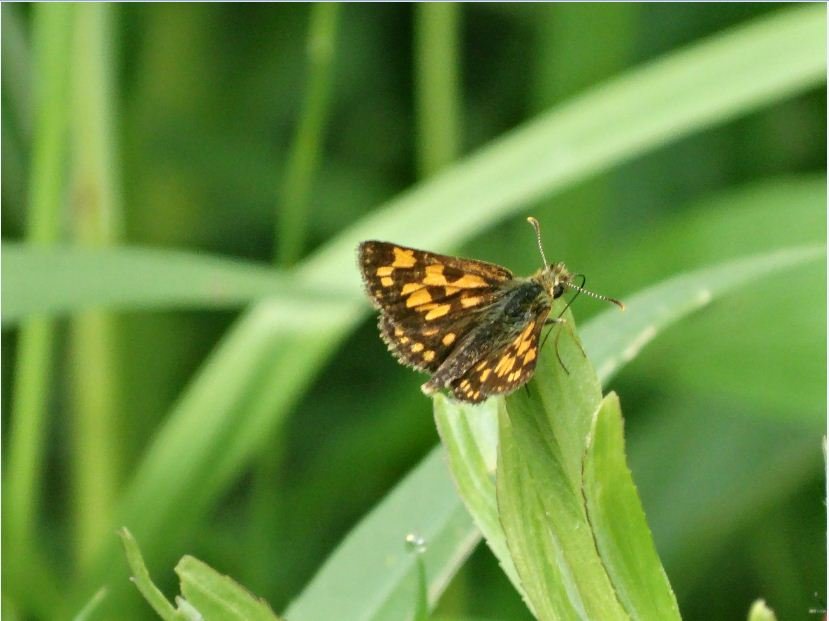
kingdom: Animalia
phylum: Arthropoda
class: Insecta
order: Lepidoptera
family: Hesperiidae
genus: Carterocephalus
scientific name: Carterocephalus palaemon
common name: Chequered Skipper
